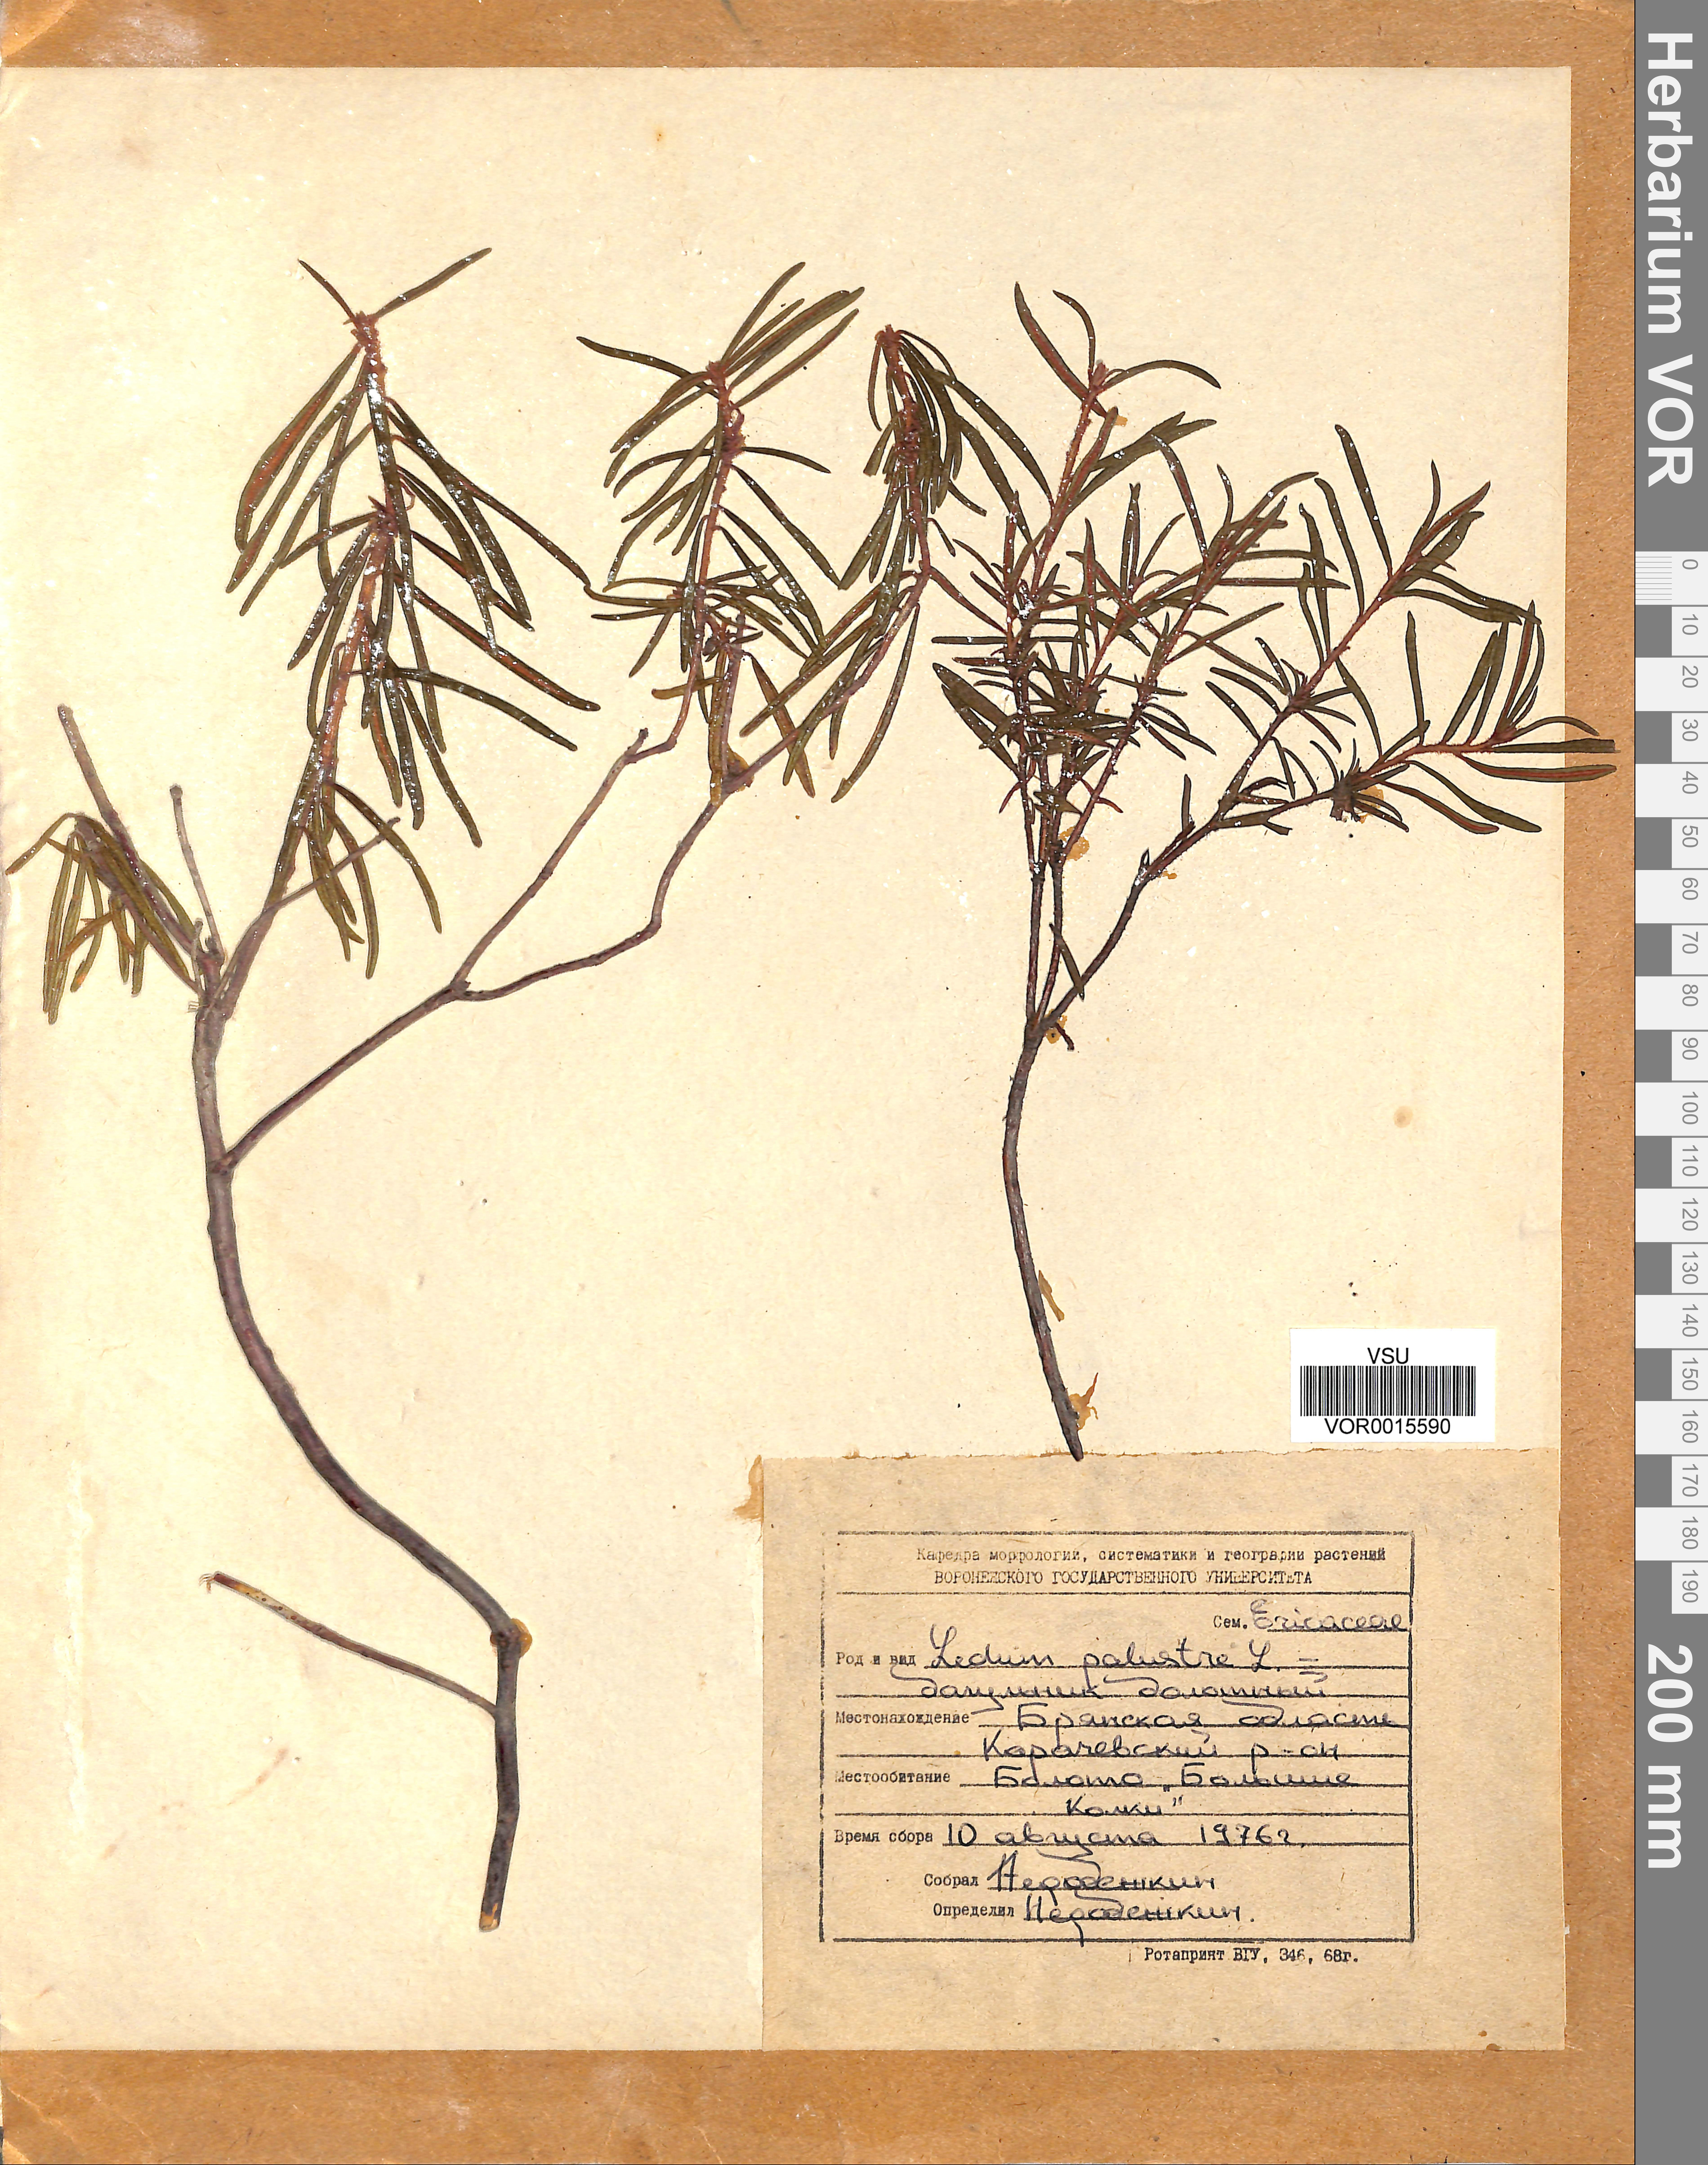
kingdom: Plantae
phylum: Tracheophyta
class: Magnoliopsida
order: Ericales
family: Ericaceae
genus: Rhododendron
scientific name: Rhododendron tomentosum
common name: Marsh labrador tea
